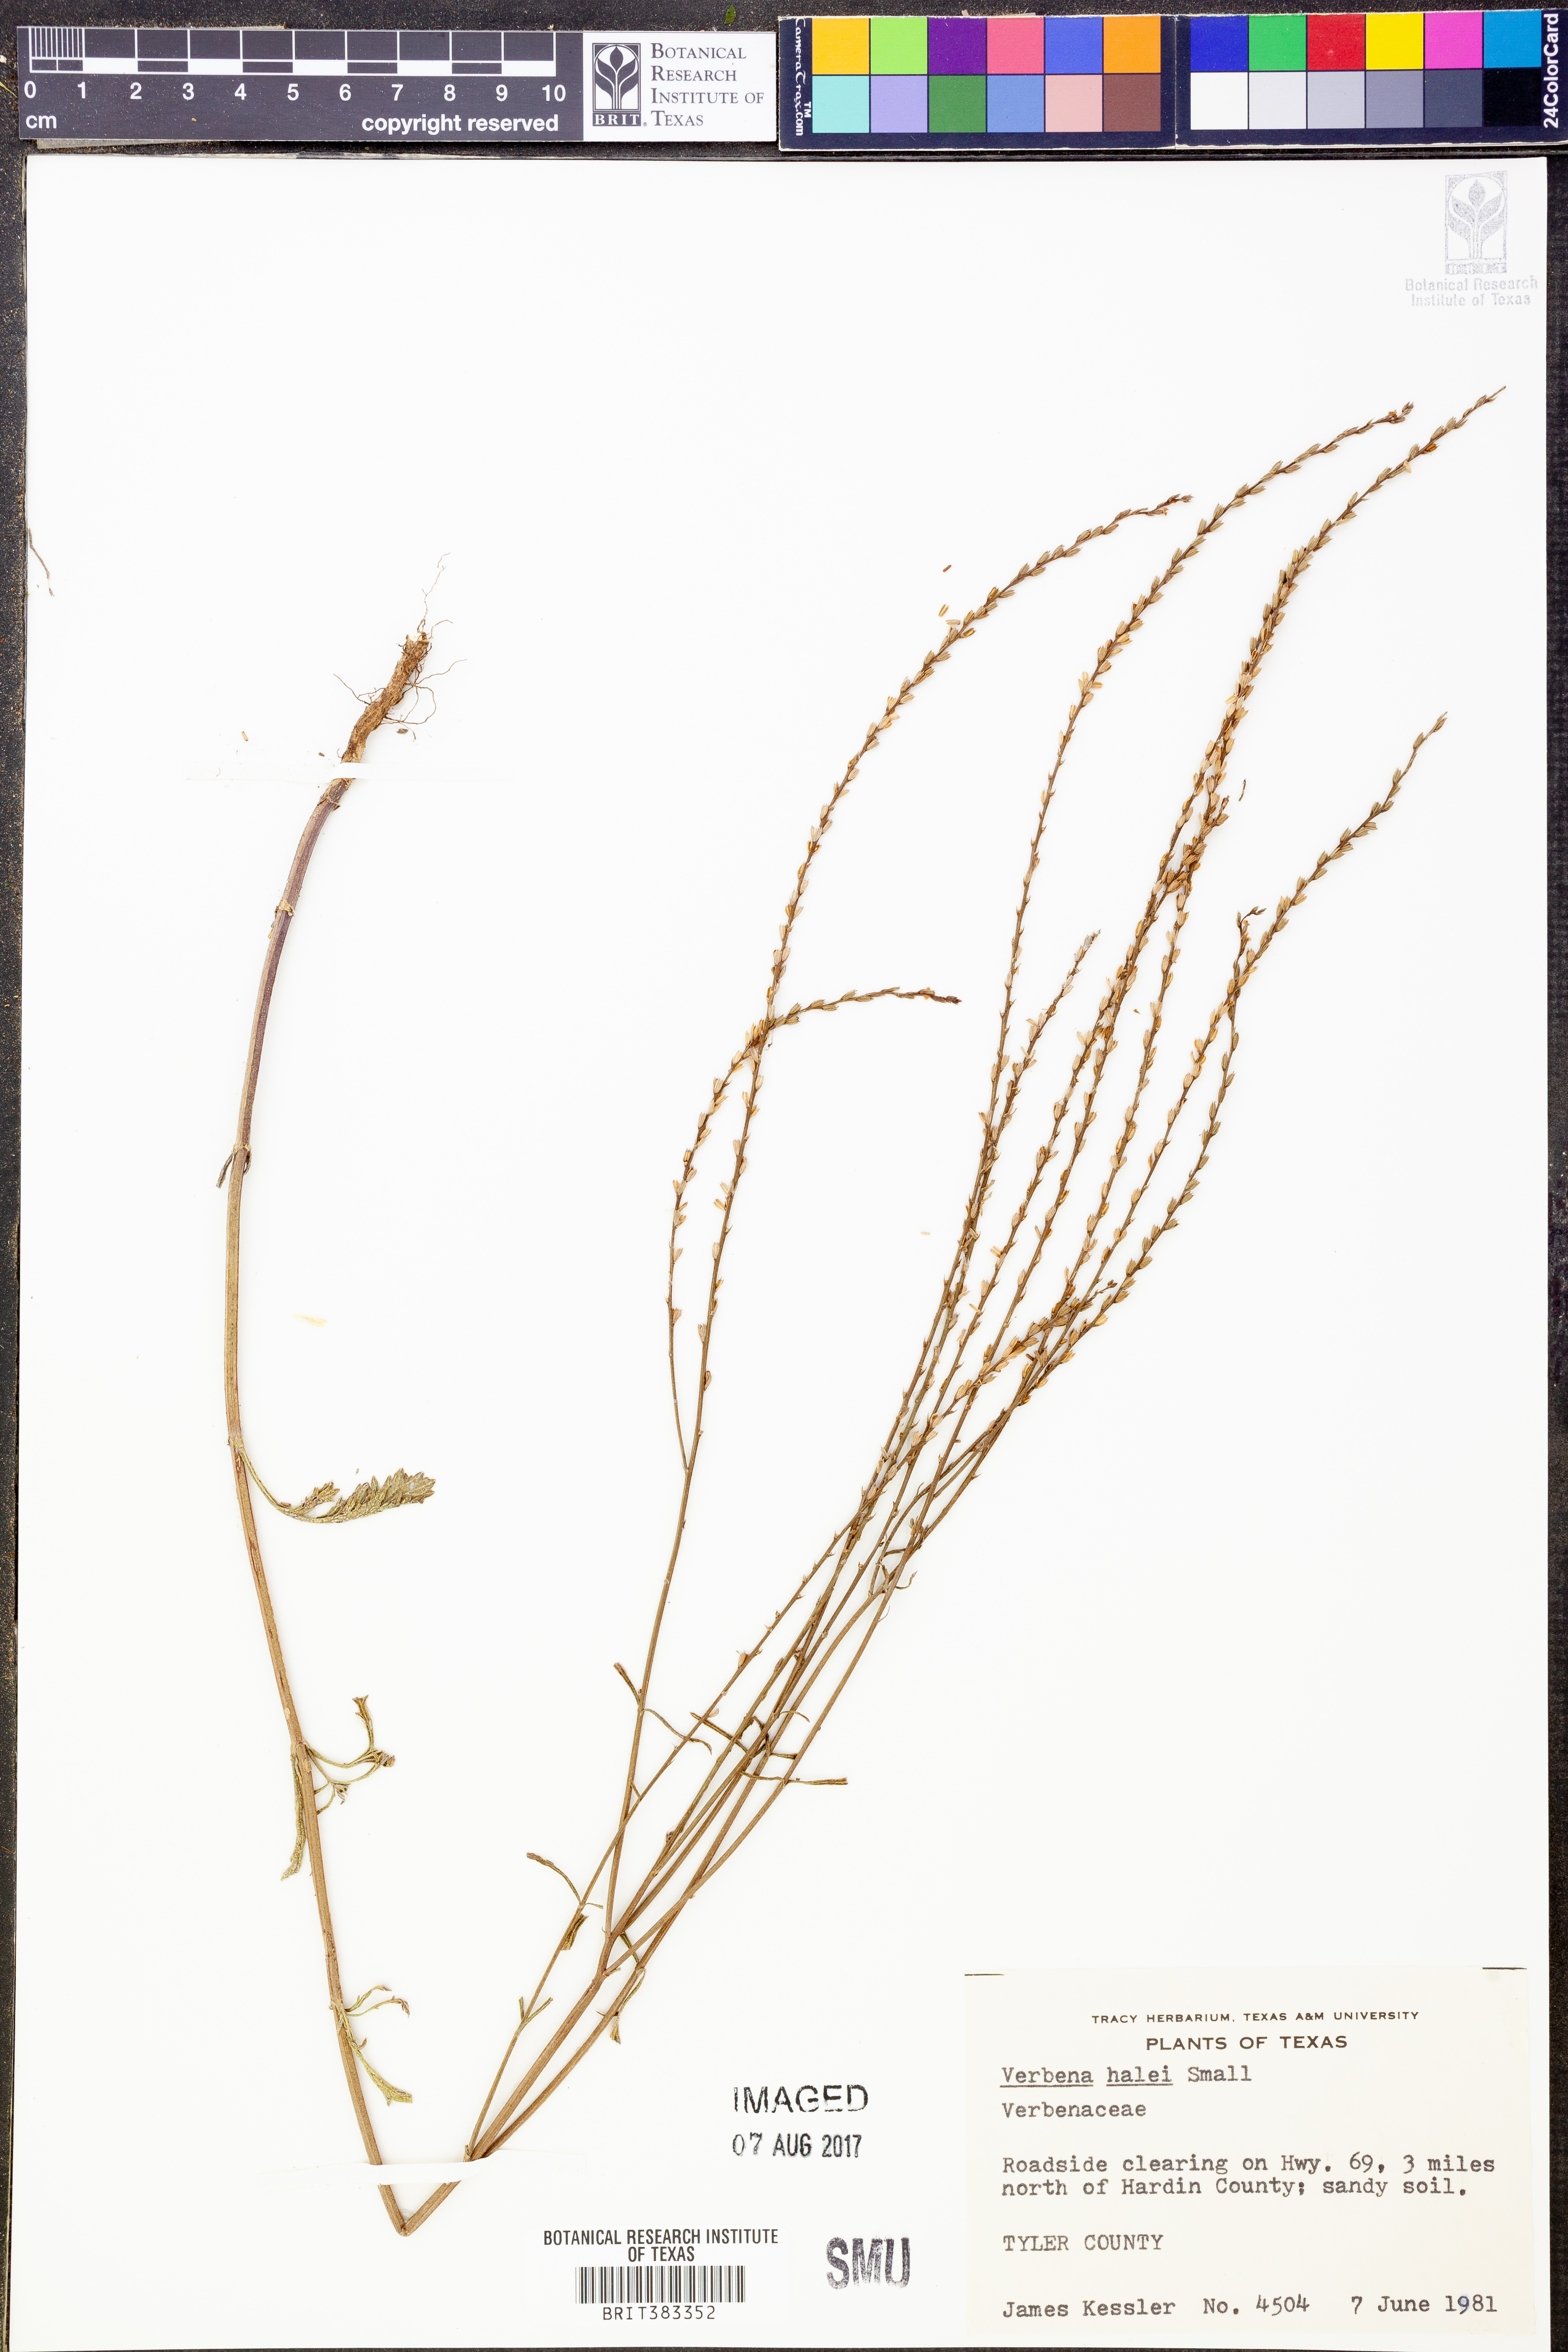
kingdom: Plantae
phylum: Tracheophyta
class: Magnoliopsida
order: Lamiales
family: Verbenaceae
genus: Verbena
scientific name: Verbena halei
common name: Texas vervain
